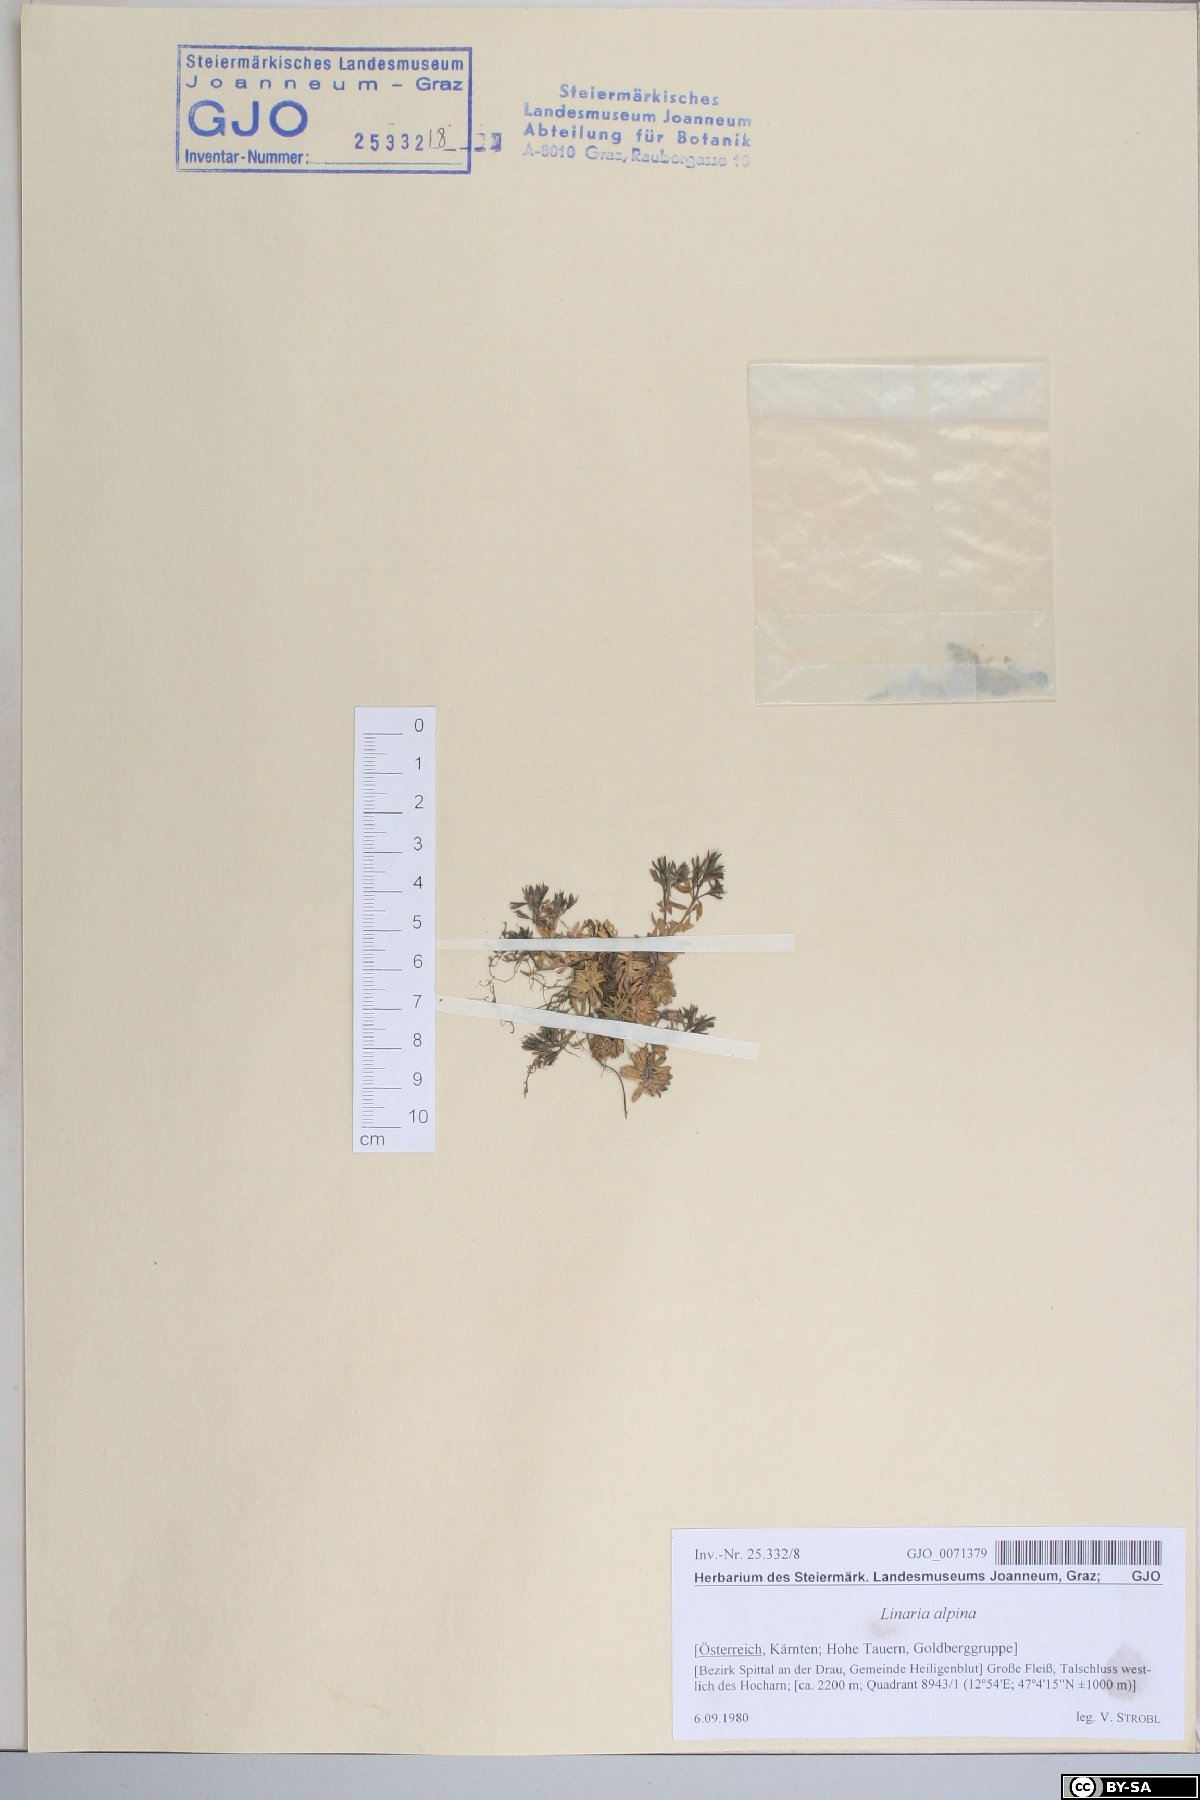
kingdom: Plantae
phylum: Tracheophyta
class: Magnoliopsida
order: Lamiales
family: Plantaginaceae
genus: Linaria
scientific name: Linaria alpina
